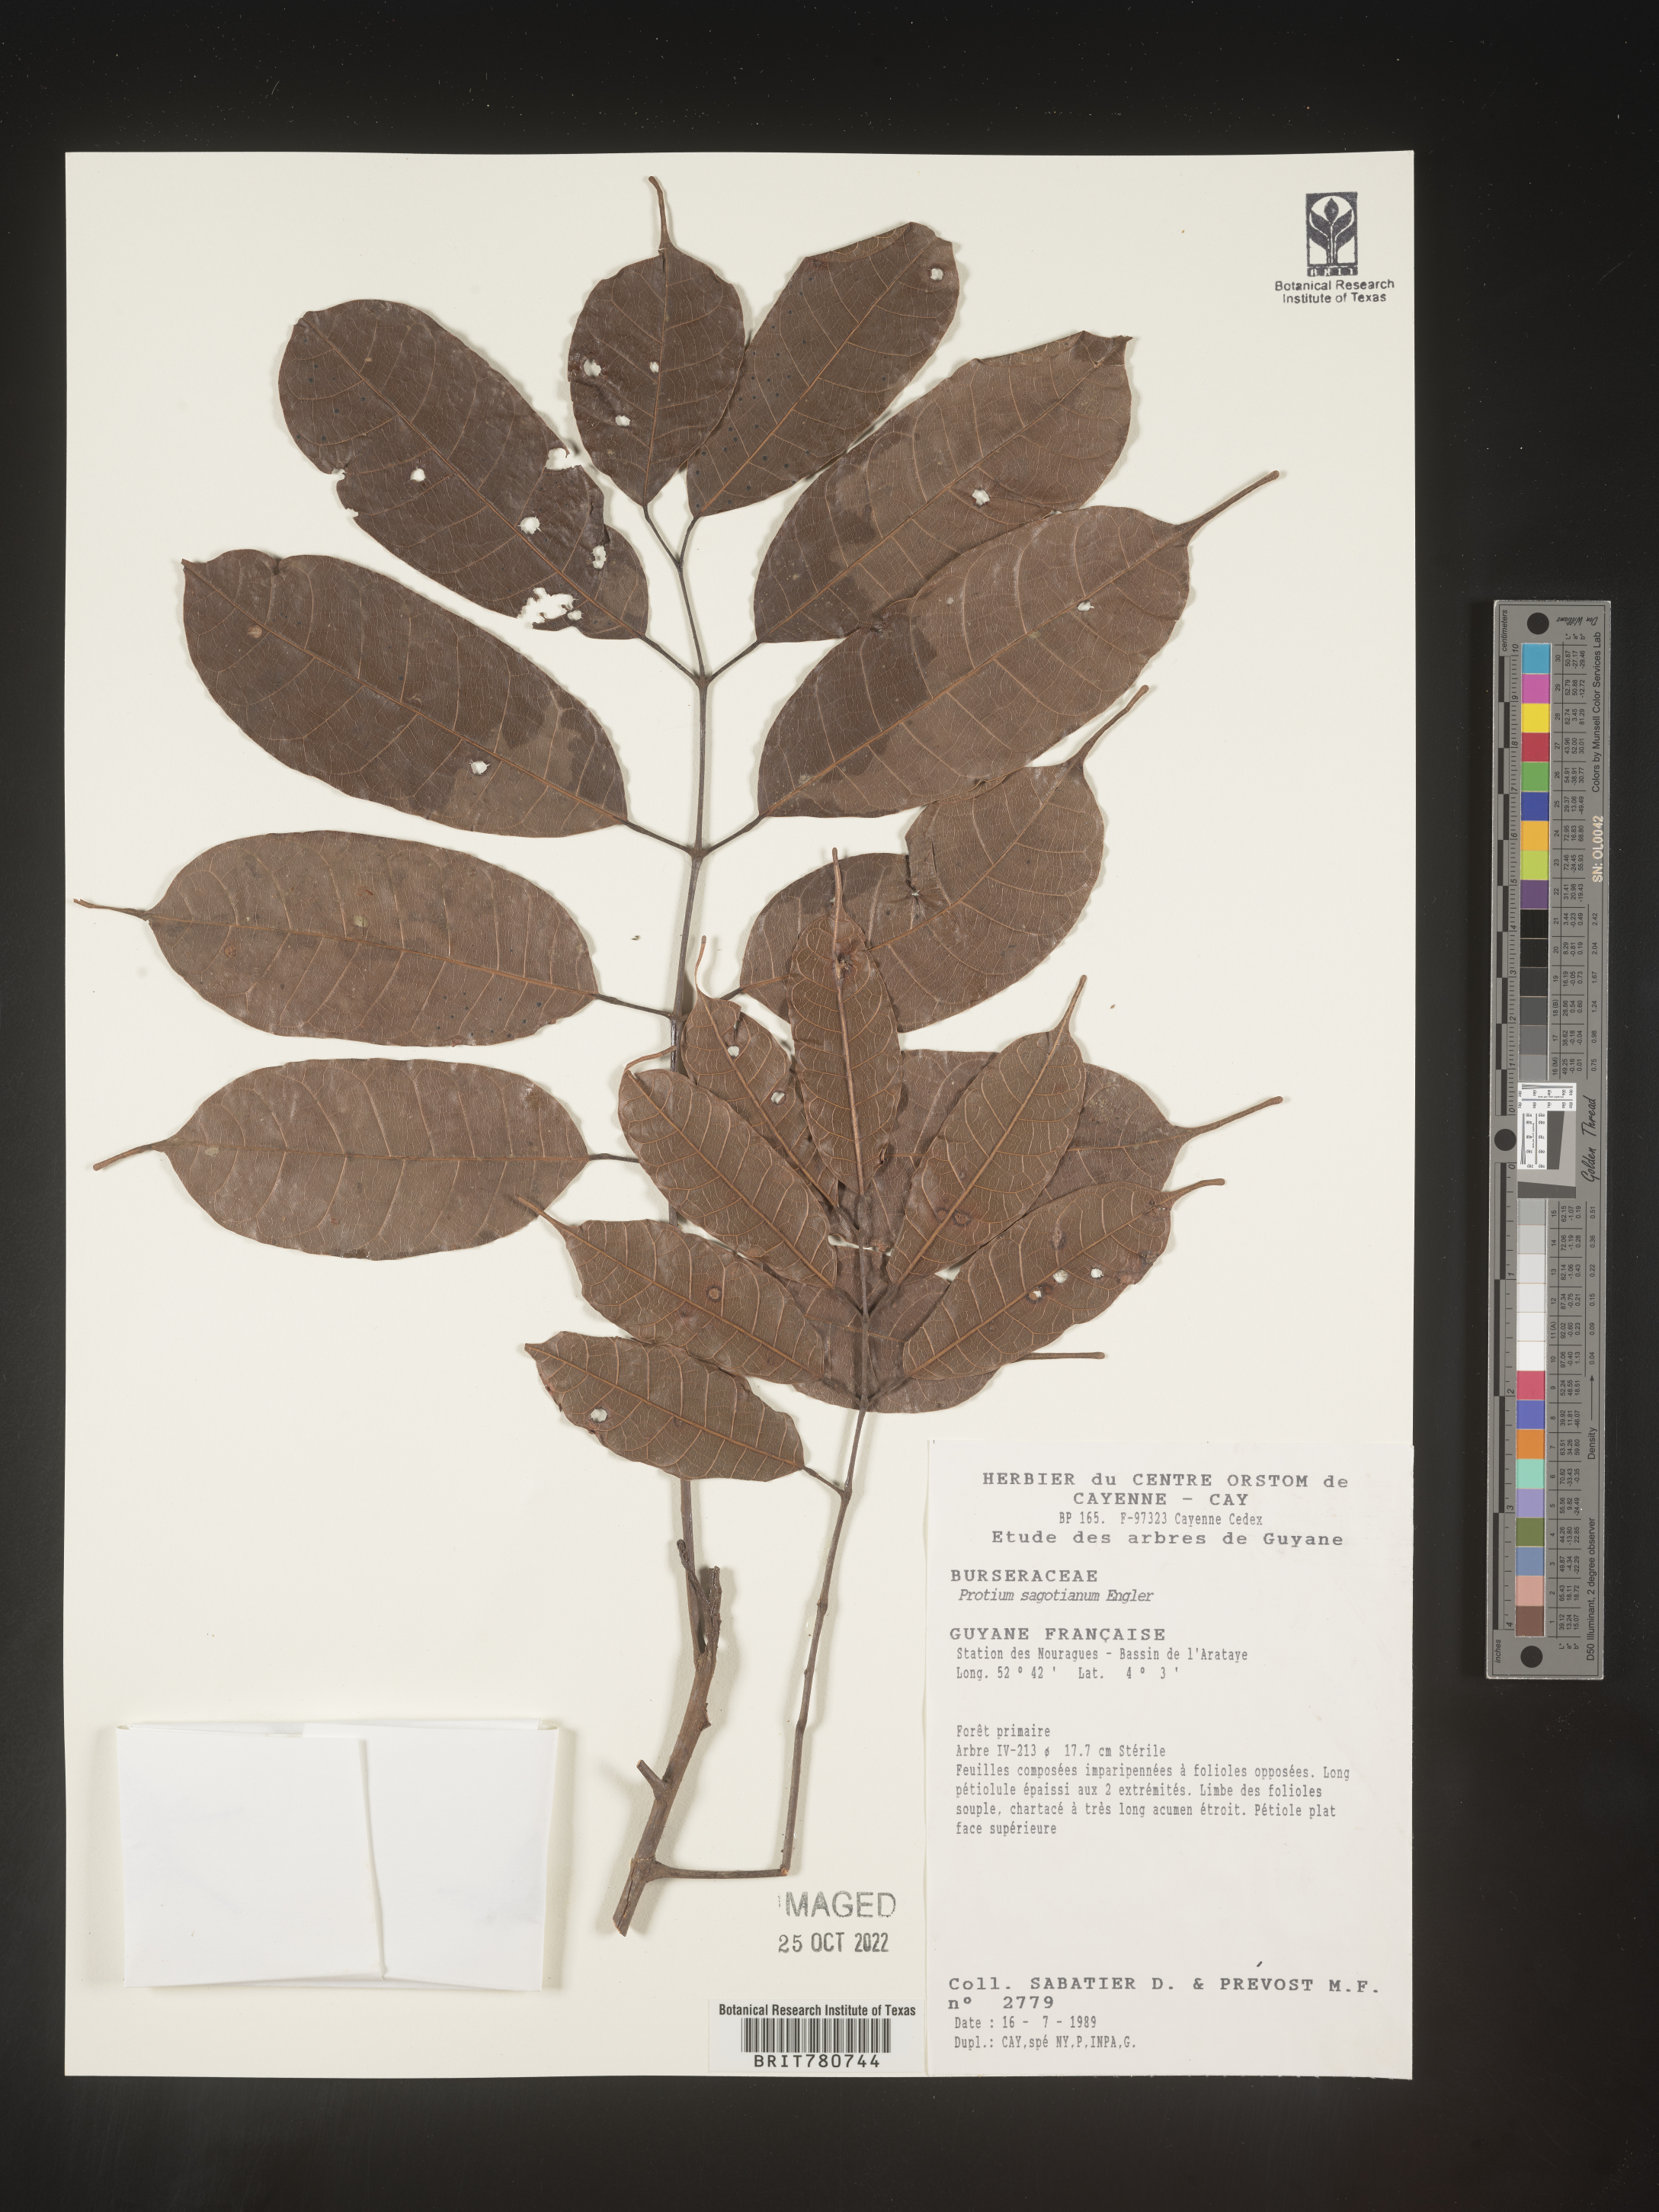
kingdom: Plantae
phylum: Tracheophyta
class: Magnoliopsida
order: Sapindales
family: Burseraceae
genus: Protium
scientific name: Protium
